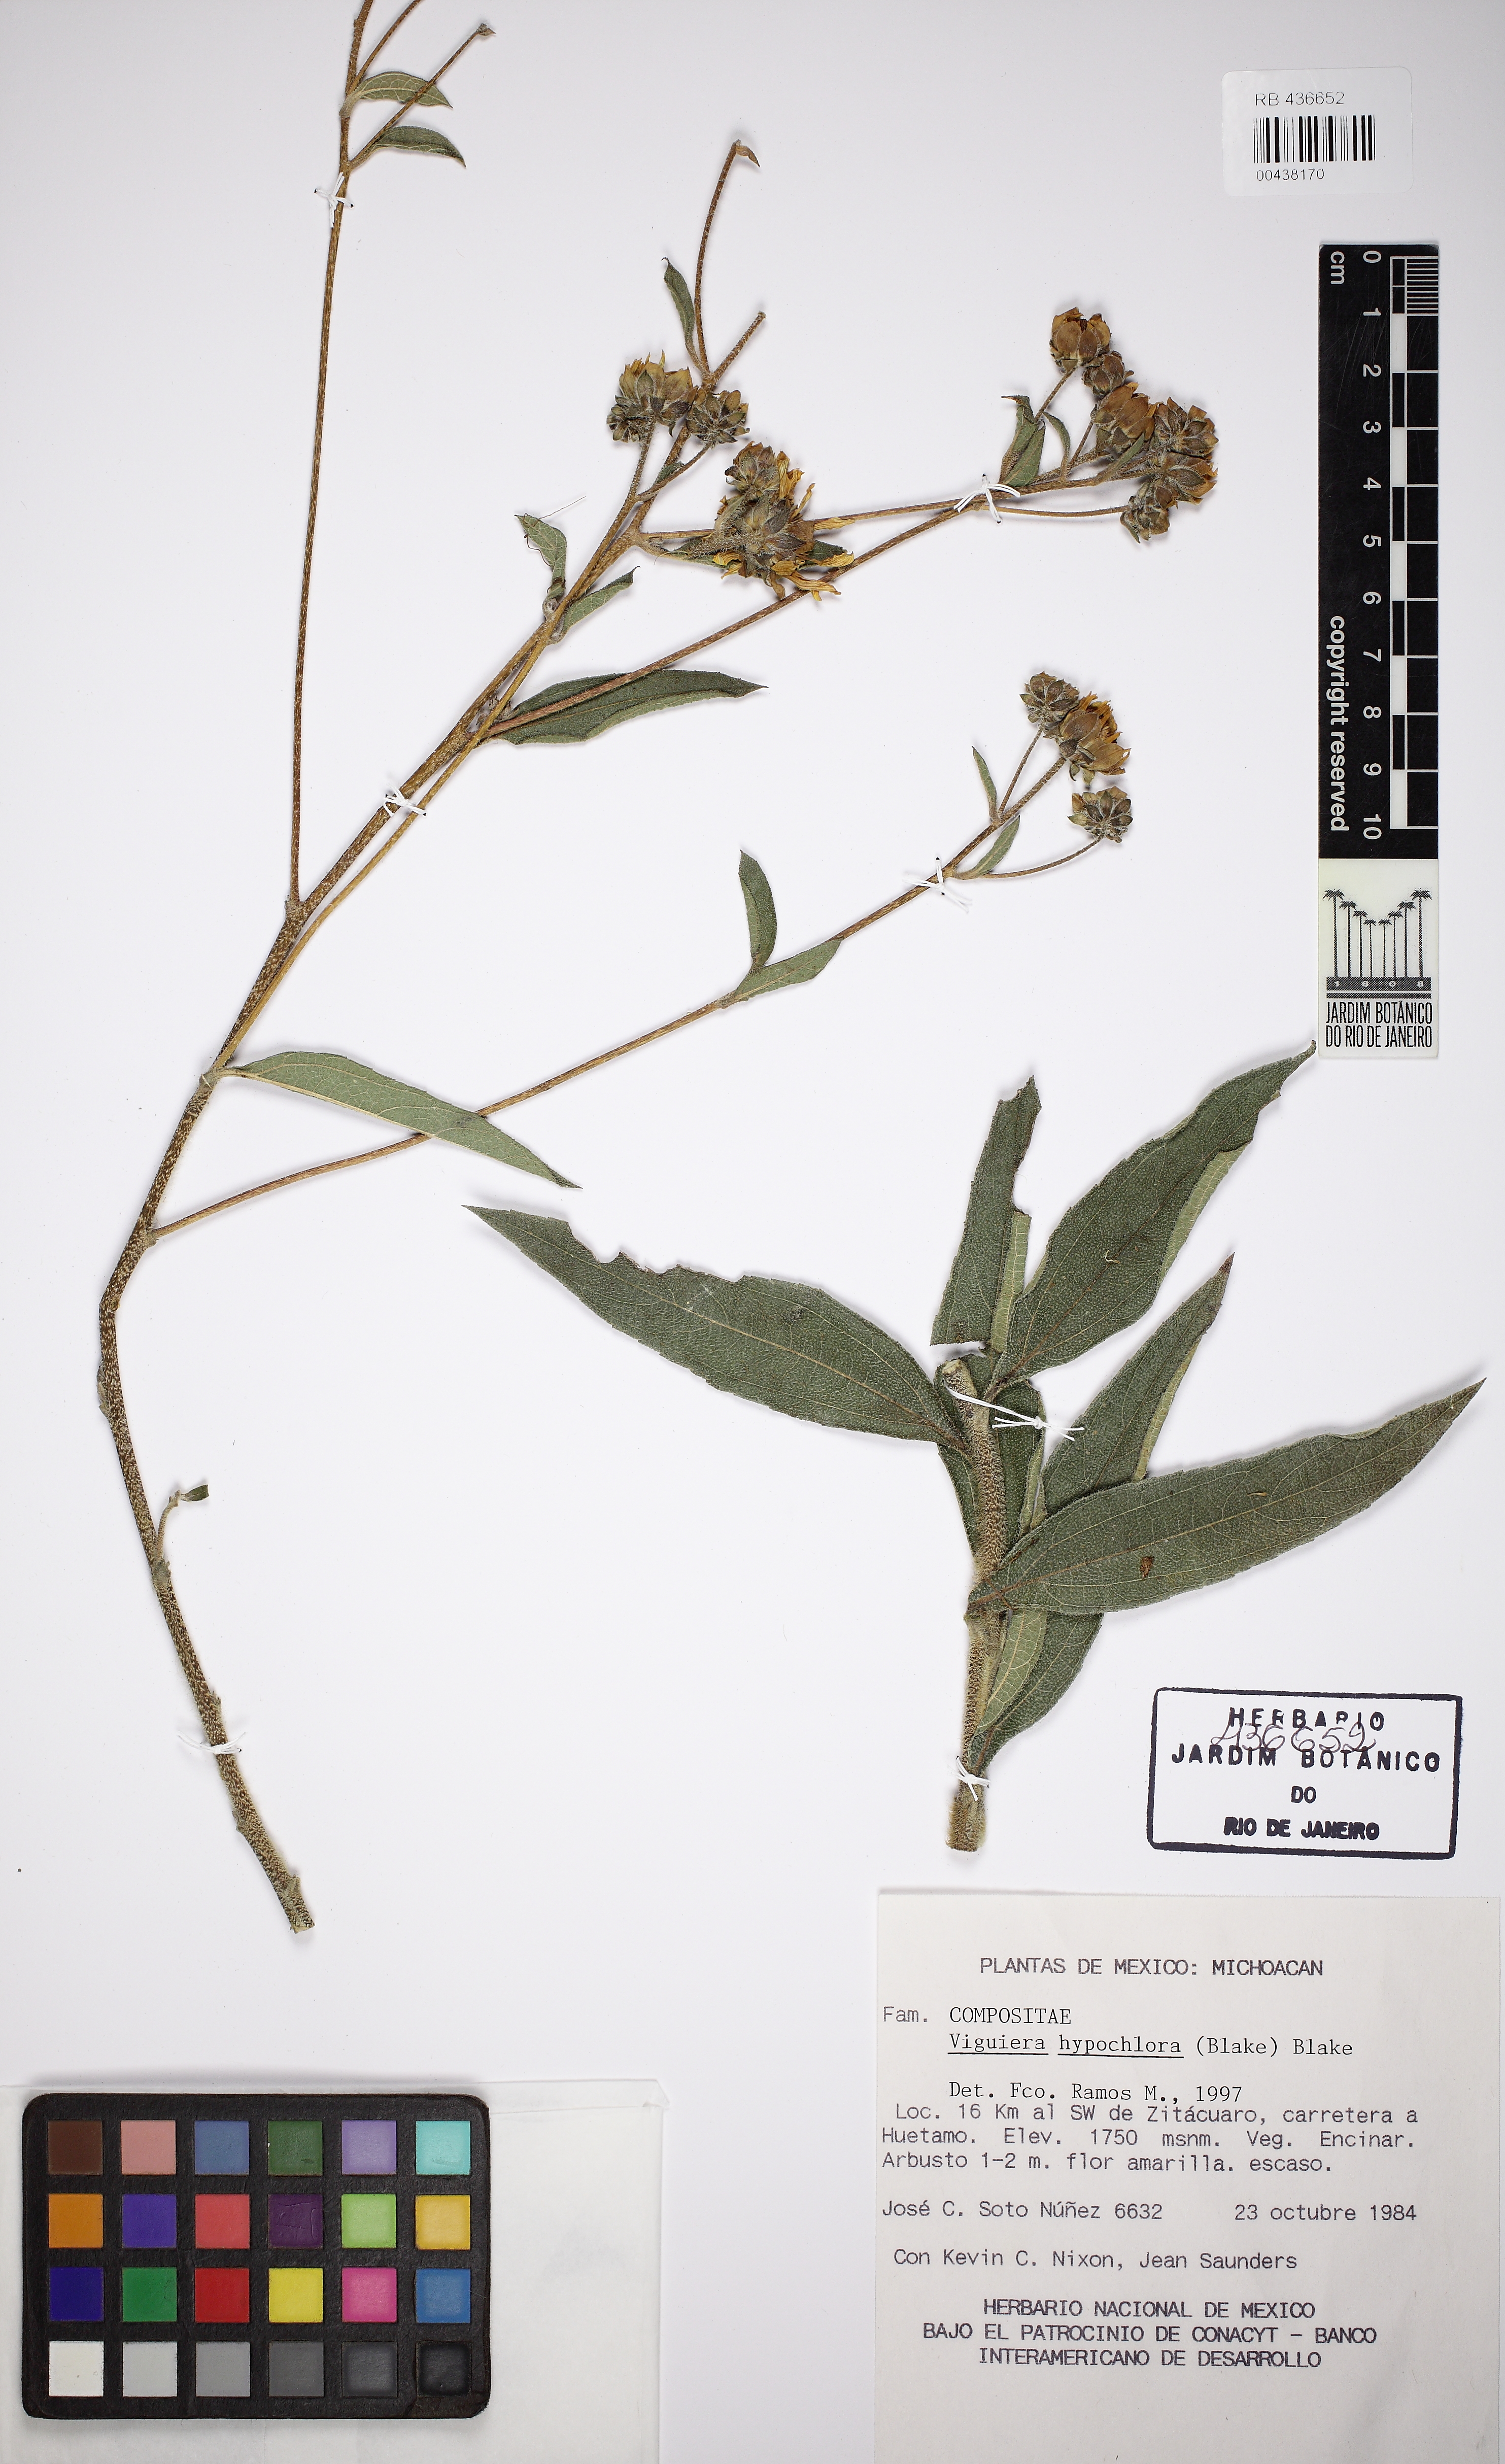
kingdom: Plantae
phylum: Tracheophyta
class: Magnoliopsida
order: Asterales
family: Asteraceae
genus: Aldama
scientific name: Aldama hypochlora
